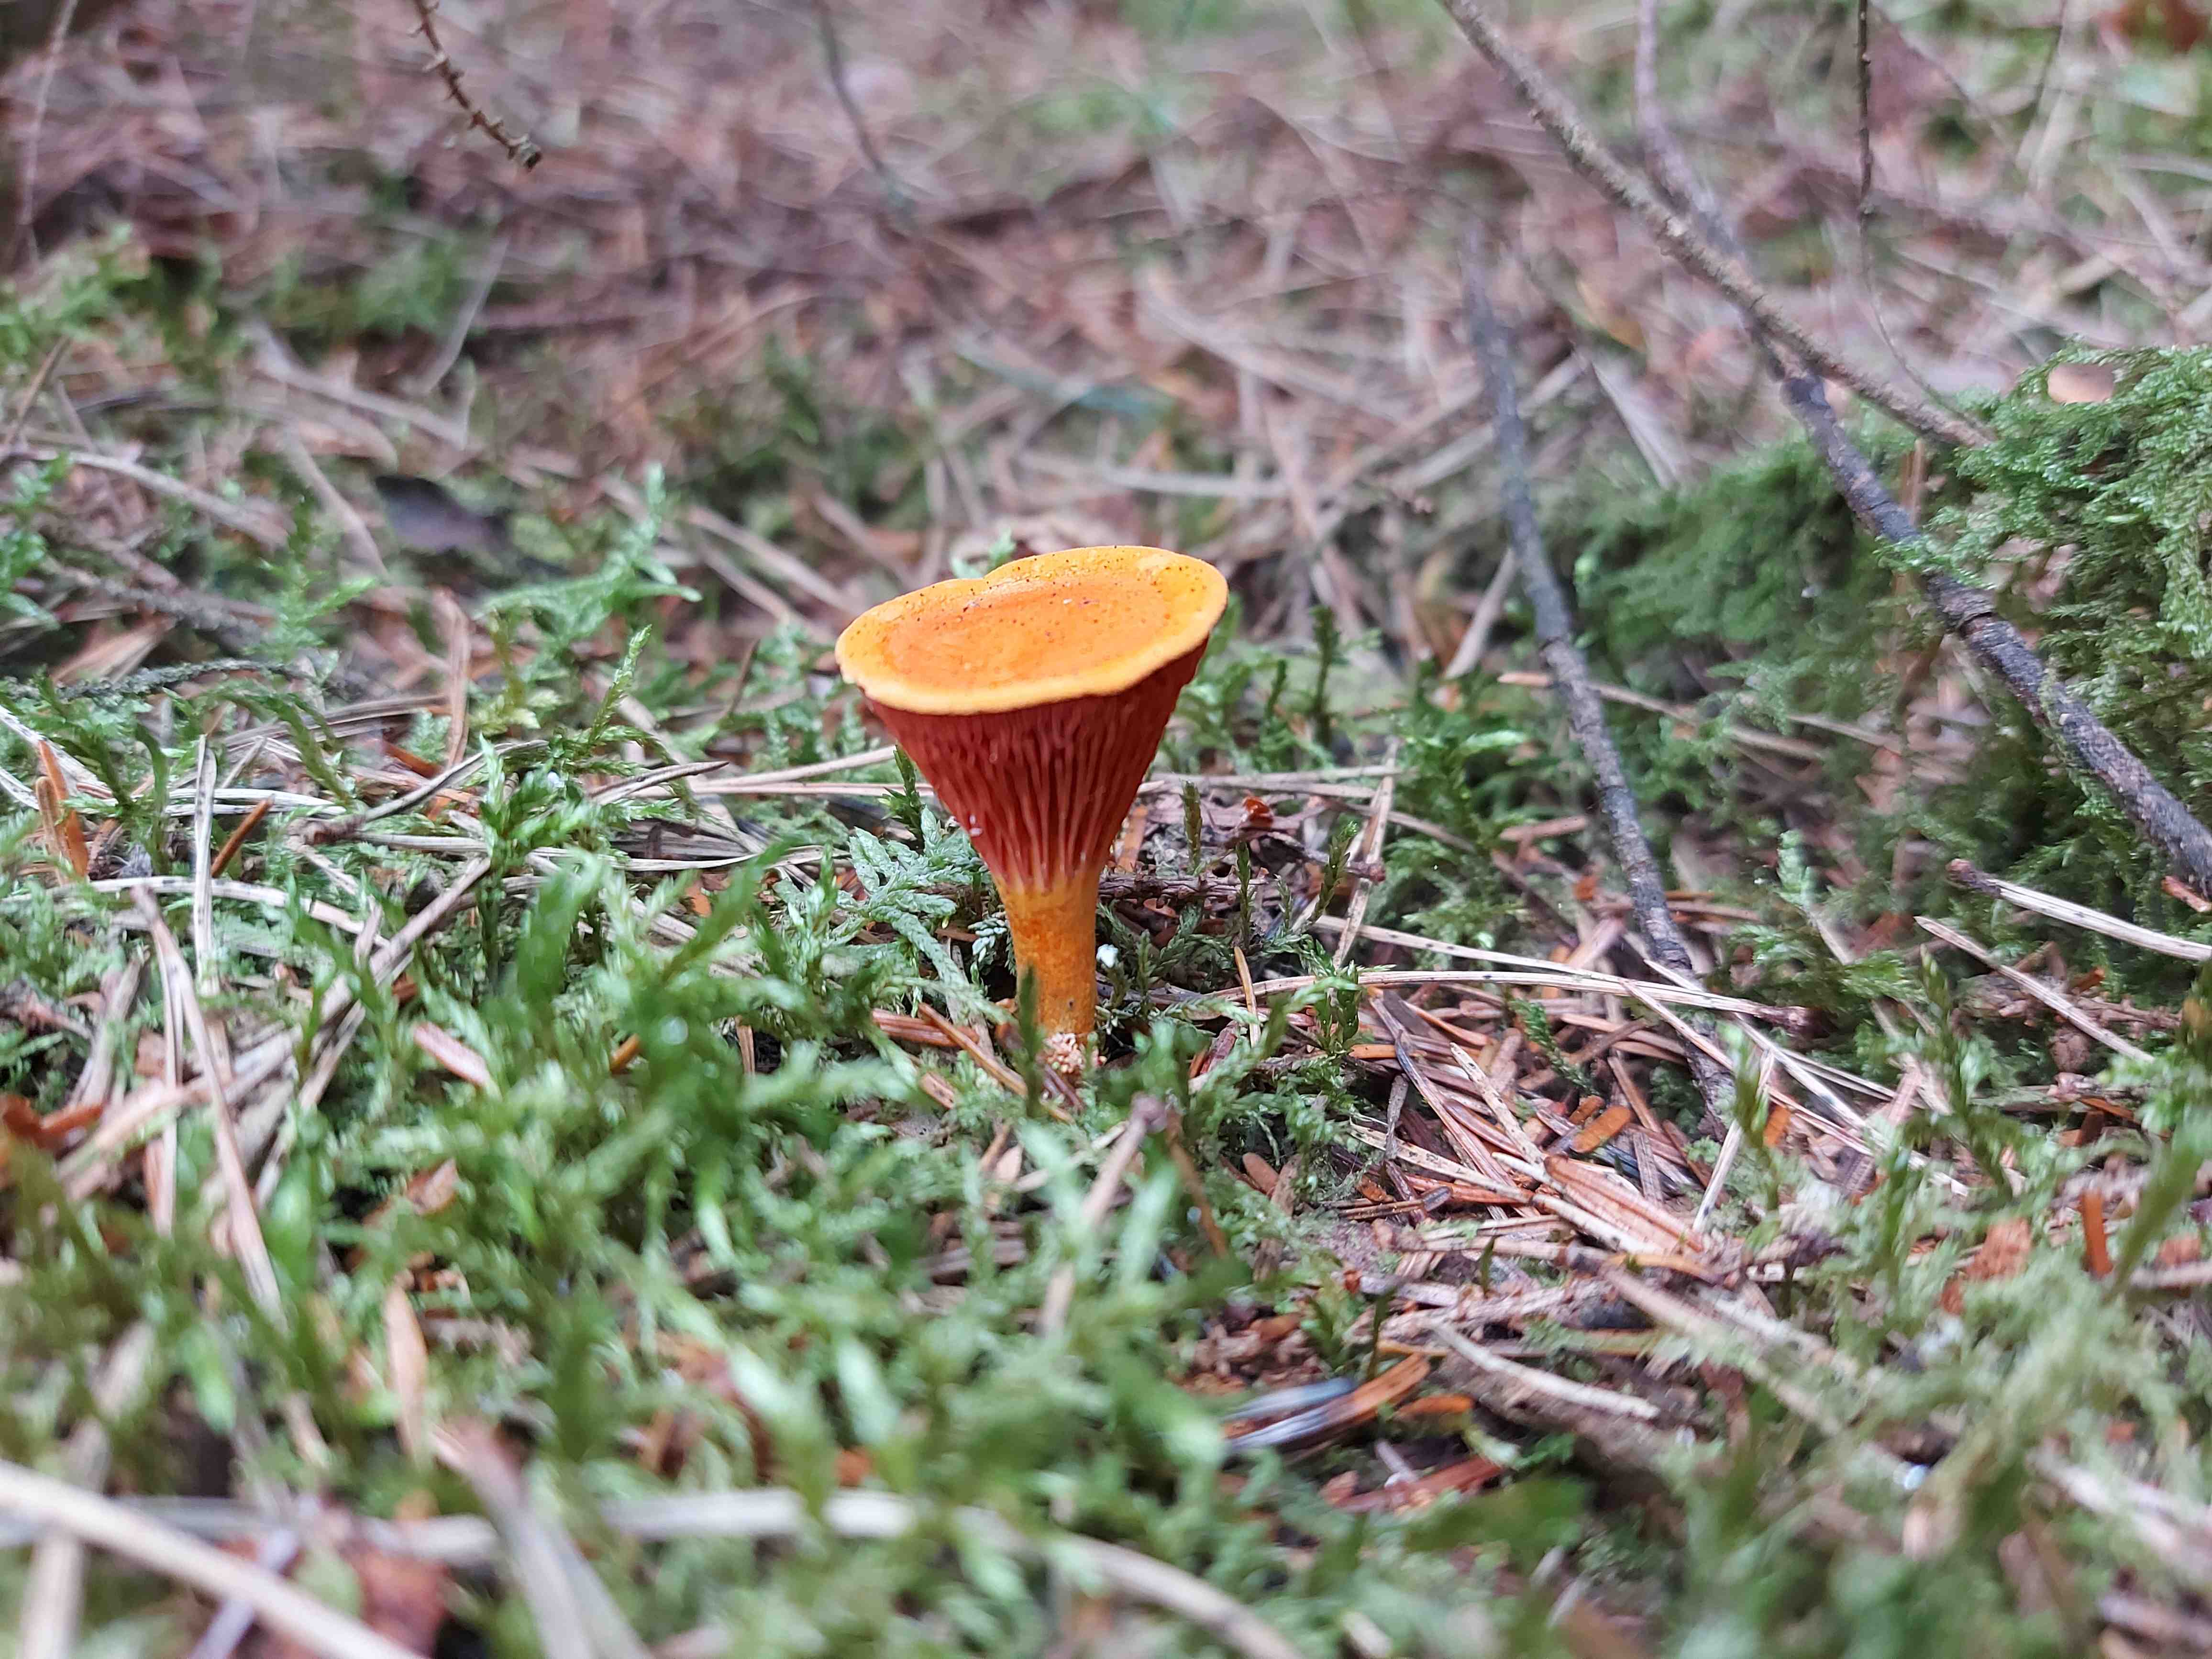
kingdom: Fungi
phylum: Basidiomycota
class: Agaricomycetes
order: Boletales
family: Hygrophoropsidaceae
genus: Hygrophoropsis
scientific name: Hygrophoropsis aurantiaca
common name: almindelig orangekantarel
